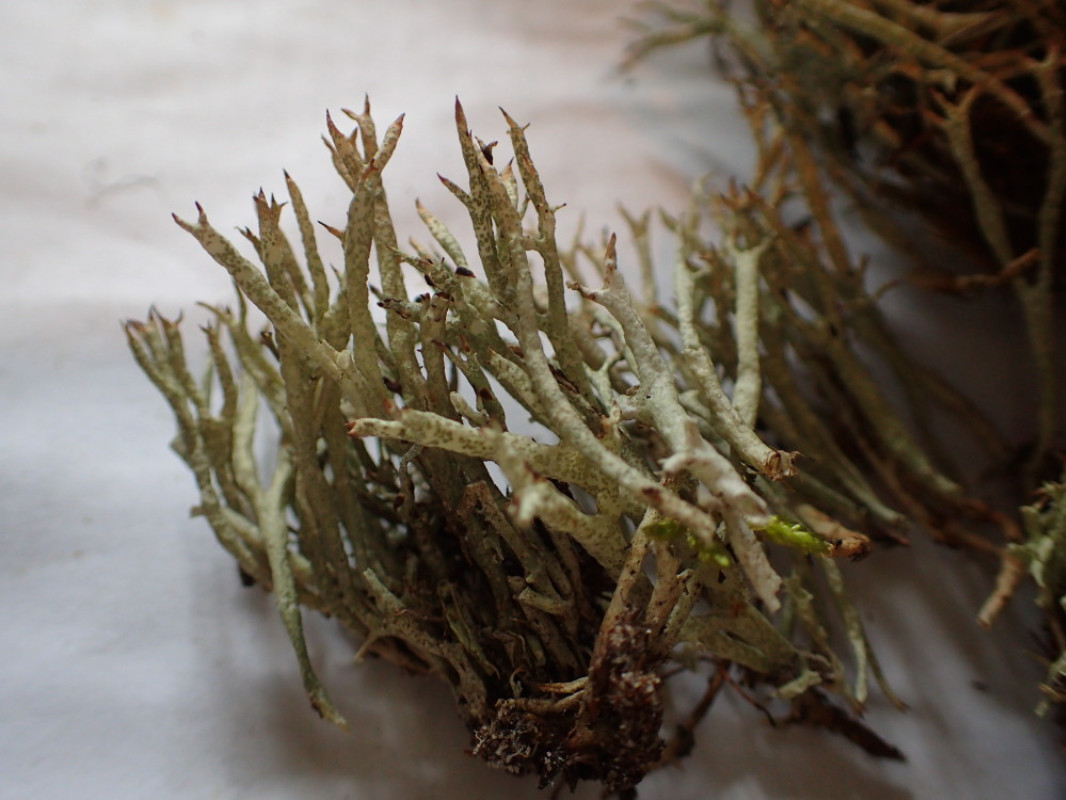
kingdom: Fungi
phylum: Ascomycota
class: Lecanoromycetes
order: Lecanorales
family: Cladoniaceae
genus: Cladonia
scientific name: Cladonia uncialis
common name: pigget bægerlav
